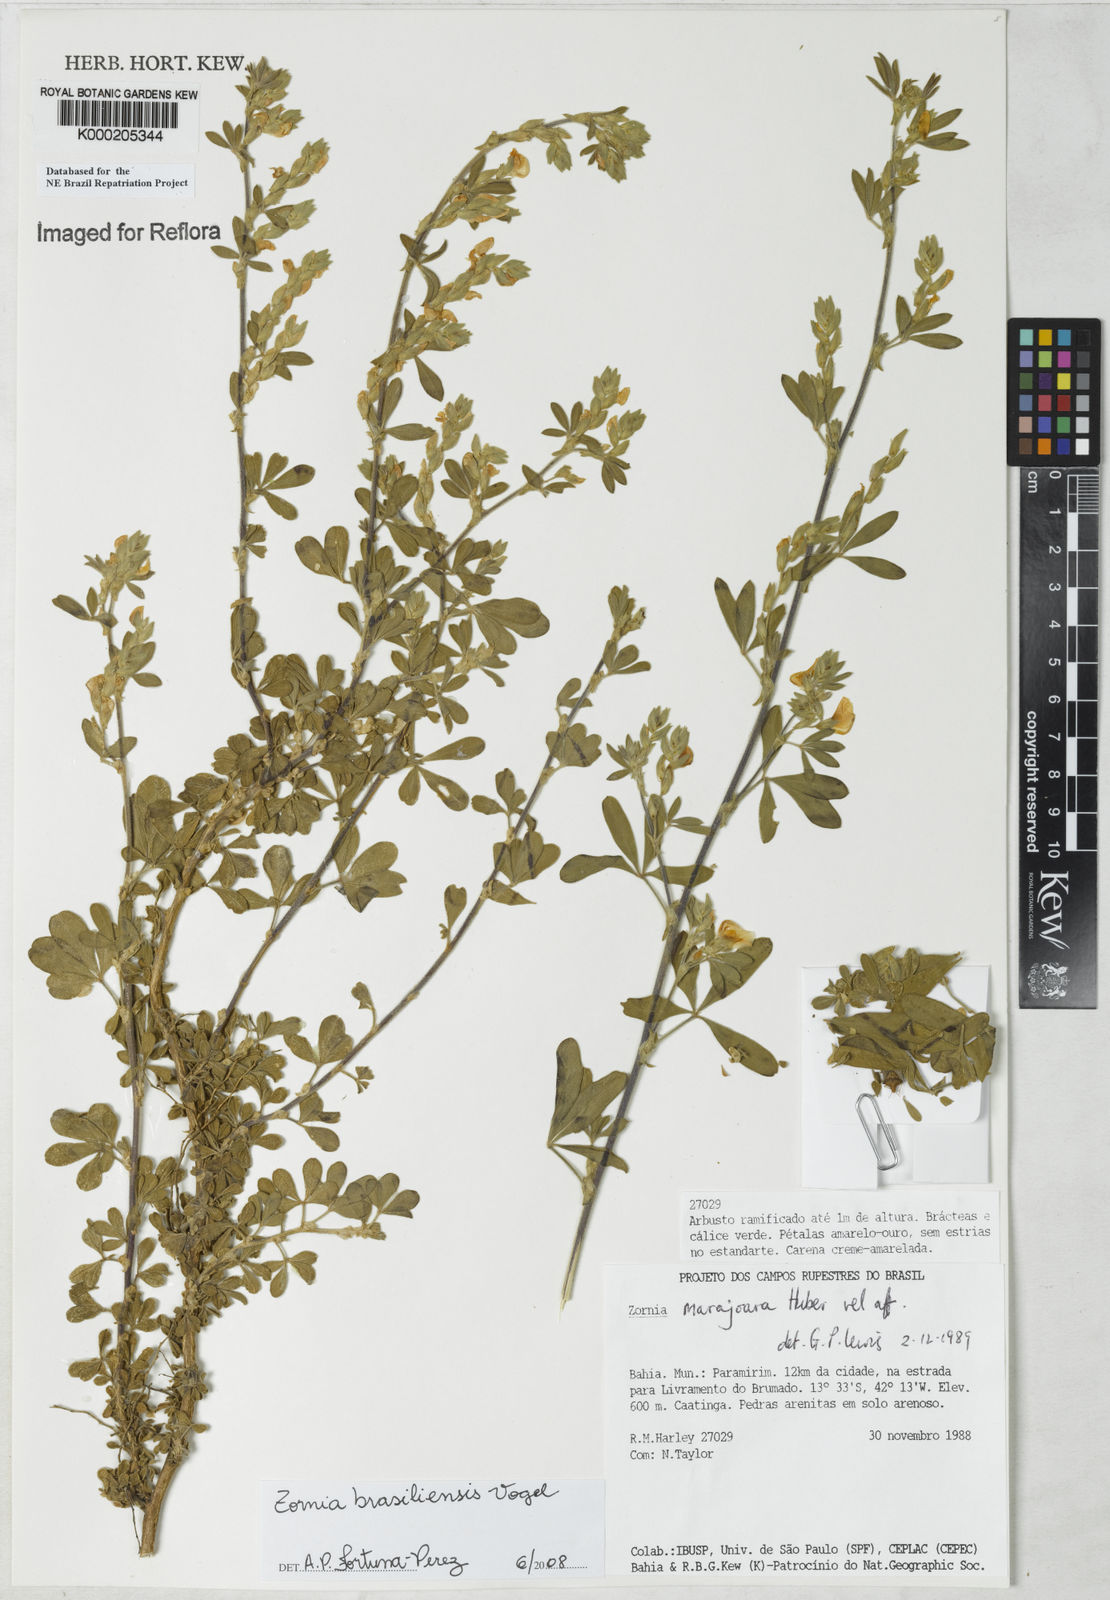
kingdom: Plantae
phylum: Tracheophyta
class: Magnoliopsida
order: Fabales
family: Fabaceae
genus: Zornia
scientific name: Zornia brasiliensis
